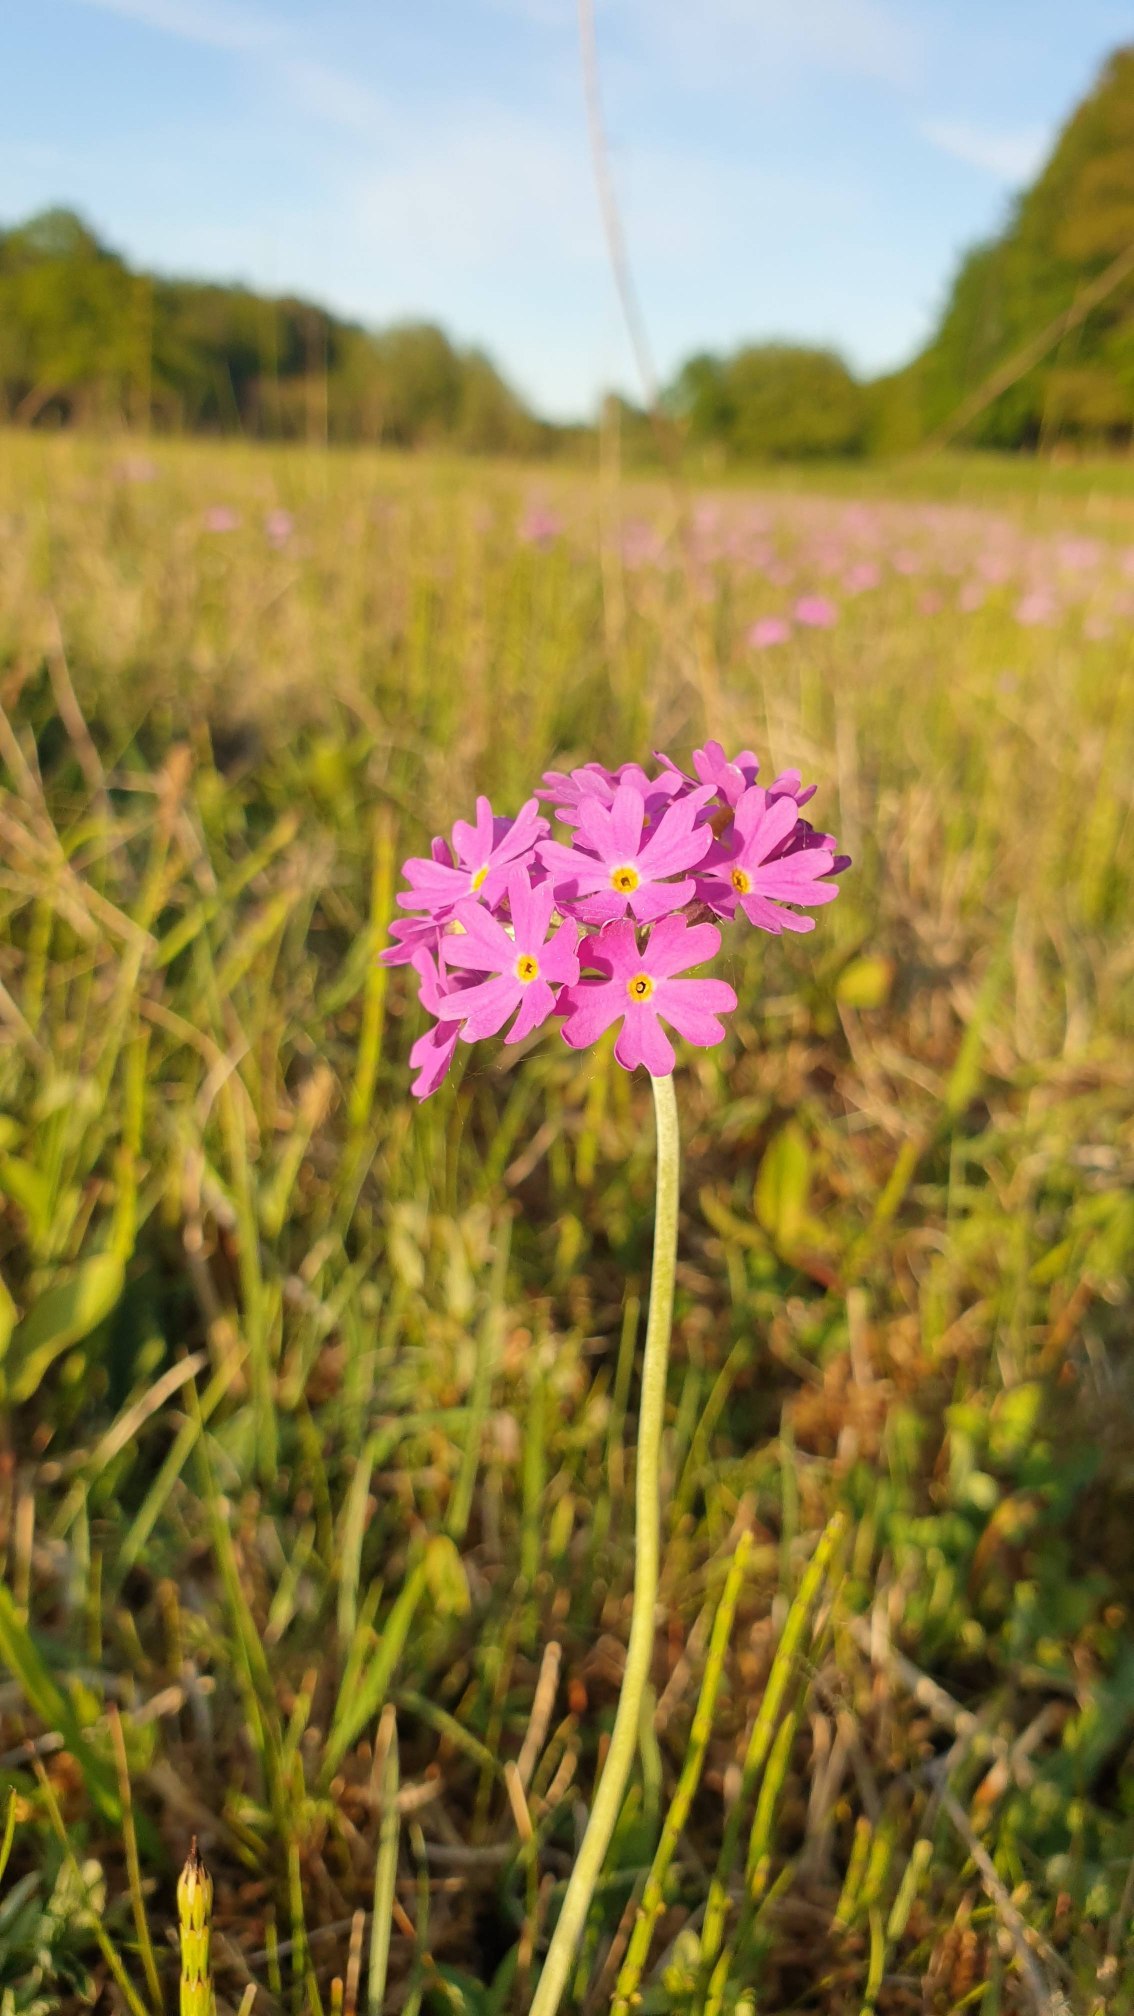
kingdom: Plantae
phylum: Tracheophyta
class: Magnoliopsida
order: Ericales
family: Primulaceae
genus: Primula
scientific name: Primula farinosa
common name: Melet kodriver
